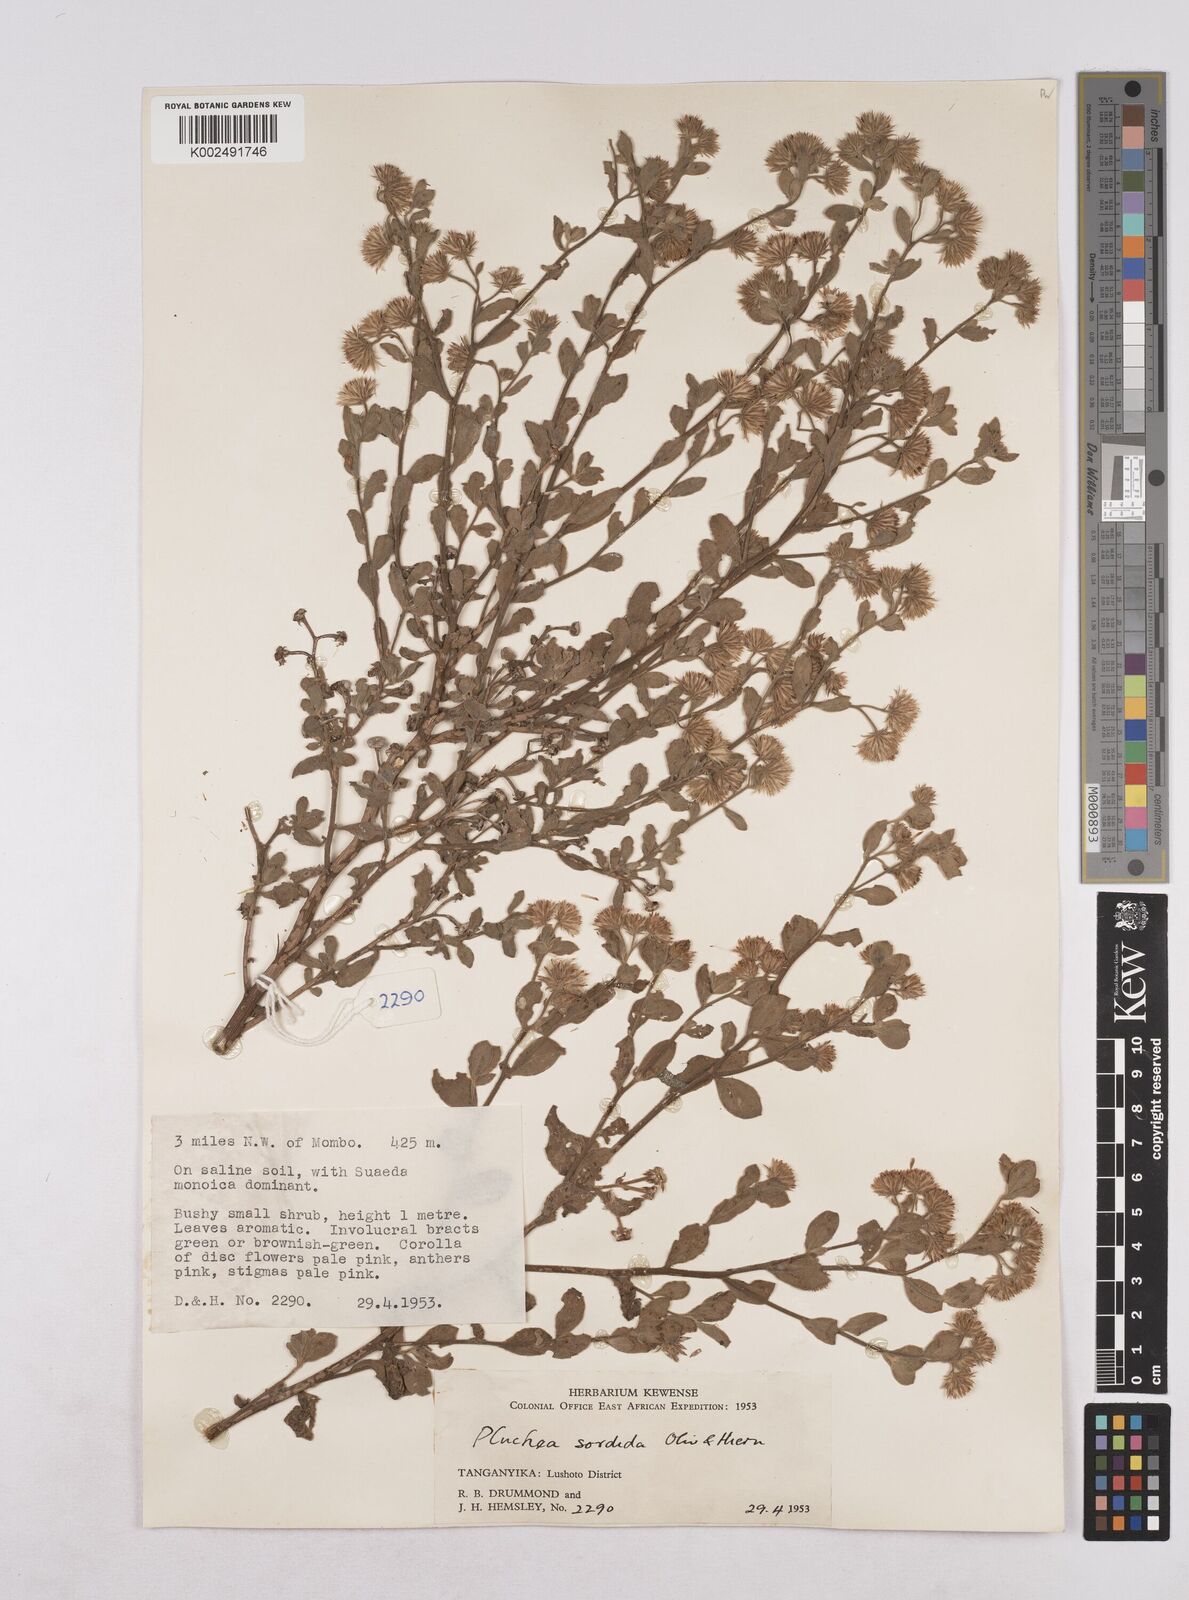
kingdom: Plantae
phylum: Tracheophyta
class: Magnoliopsida
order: Asterales
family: Asteraceae
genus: Pluchea
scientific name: Pluchea sordida
